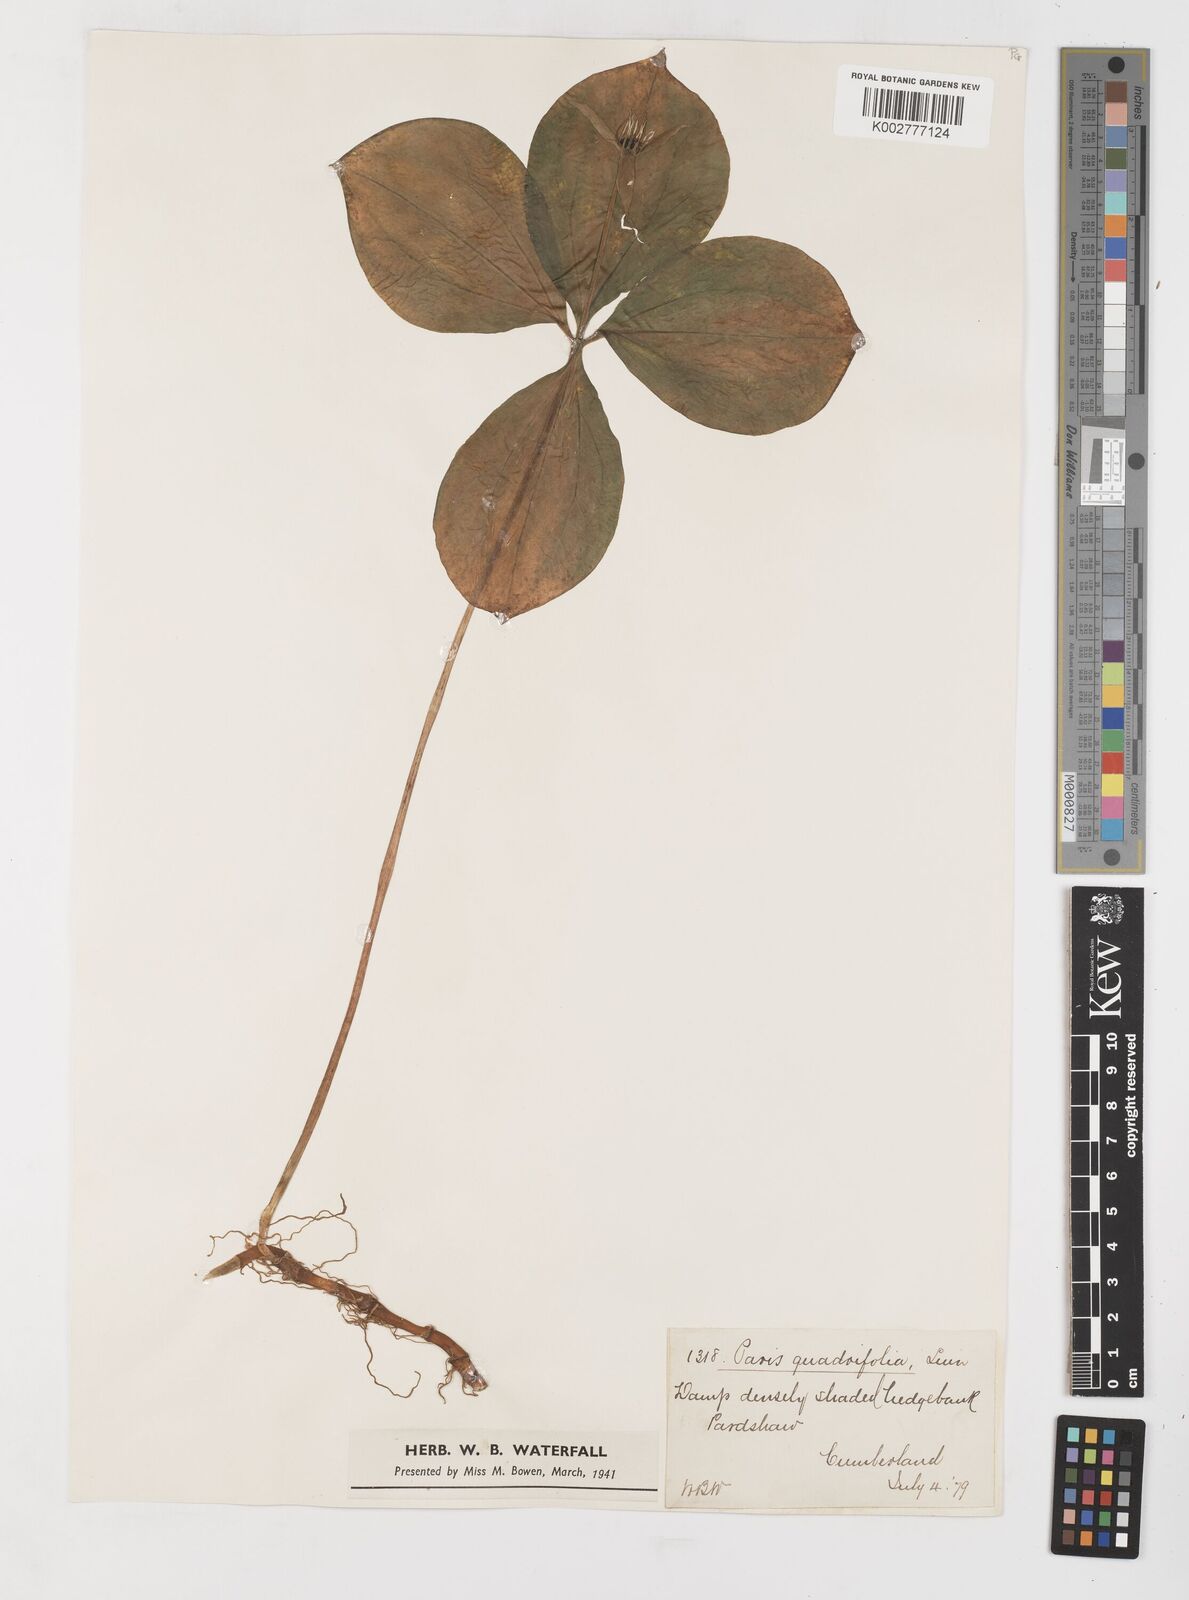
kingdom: Plantae
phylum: Tracheophyta
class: Liliopsida
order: Liliales
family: Melanthiaceae
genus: Paris
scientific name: Paris quadrifolia
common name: Herb-paris
